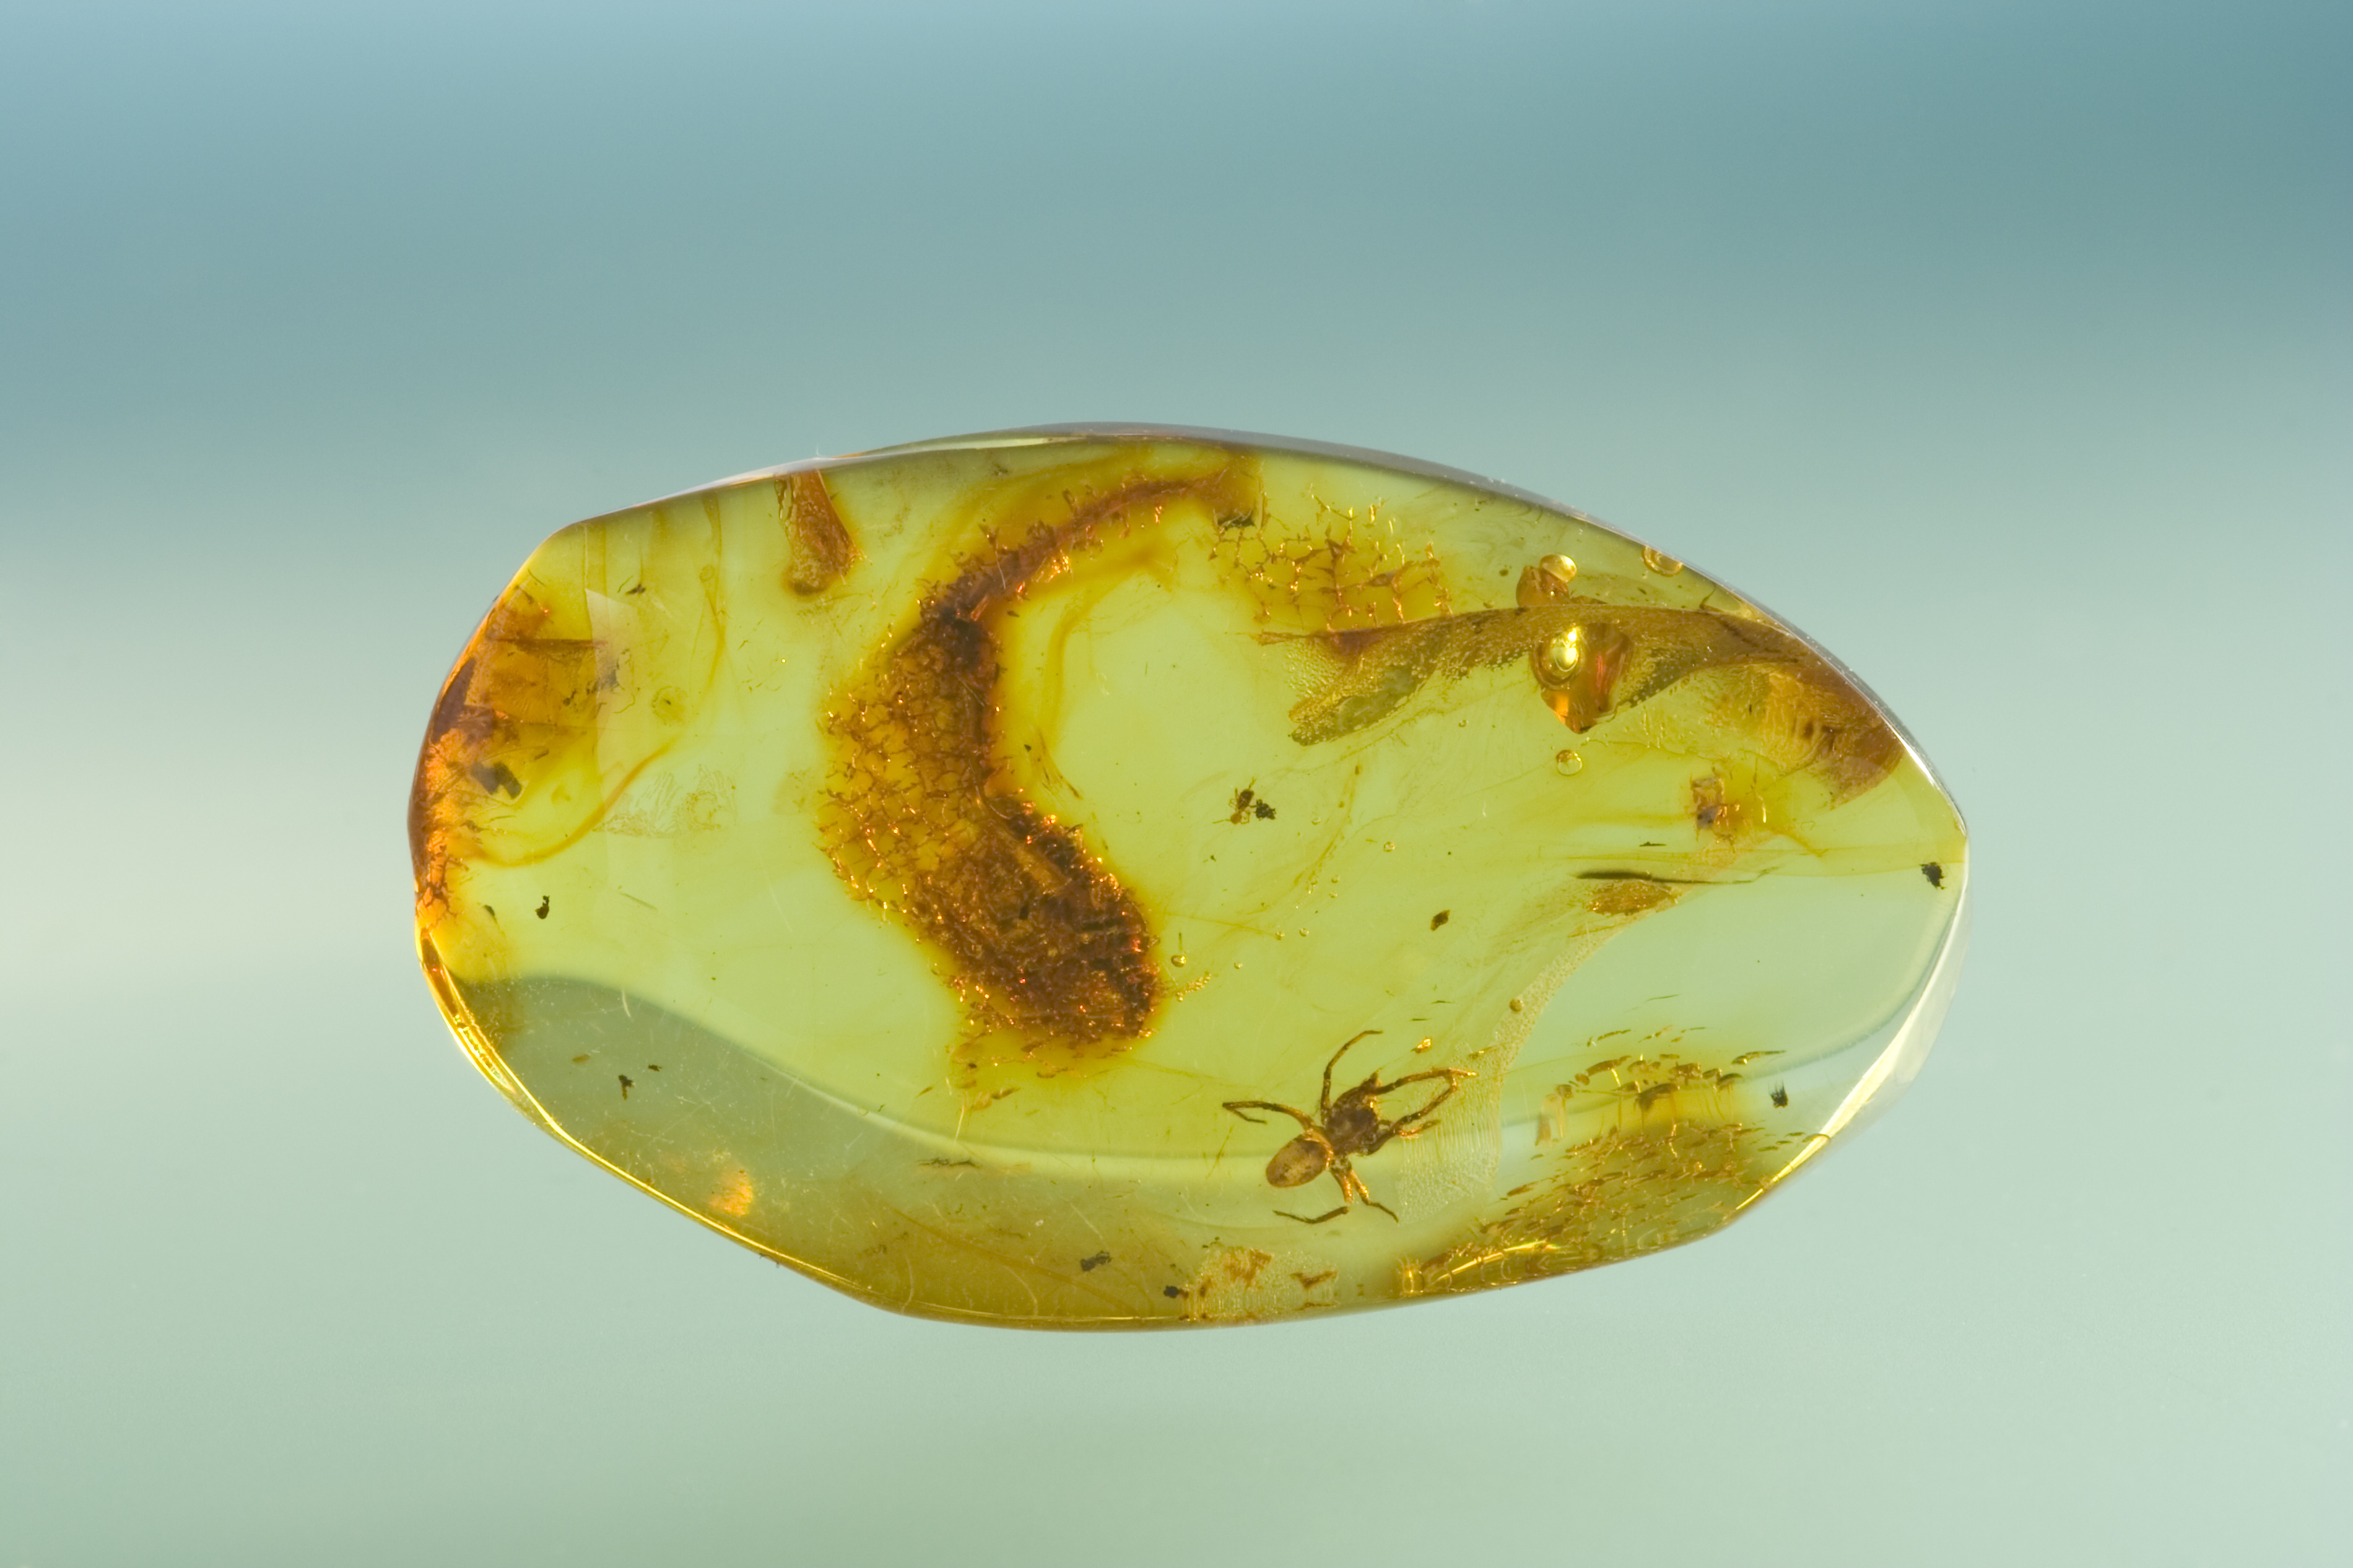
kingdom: Animalia
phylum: Arthropoda
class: Arachnida
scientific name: Arachnida
